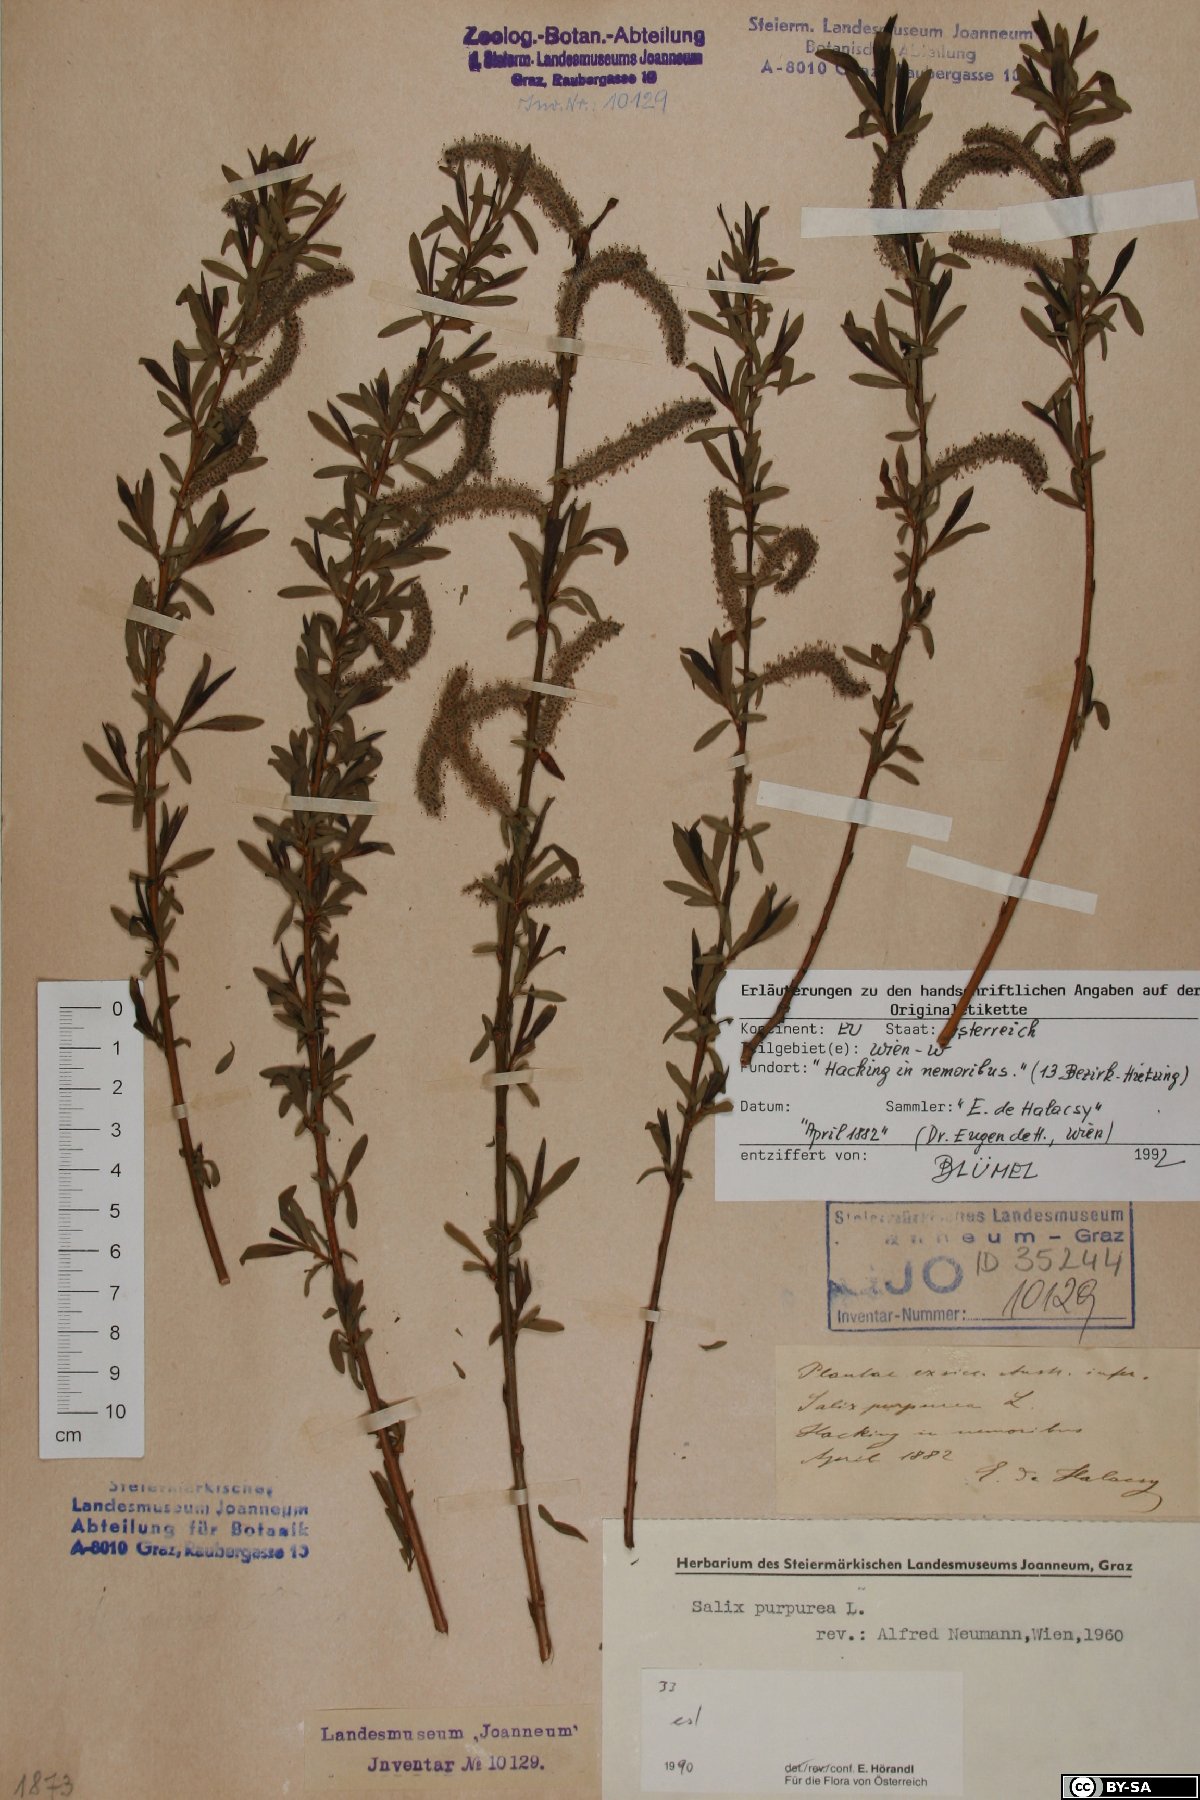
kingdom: Plantae
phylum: Tracheophyta
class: Magnoliopsida
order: Malpighiales
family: Salicaceae
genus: Salix
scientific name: Salix purpurea
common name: Purple willow
